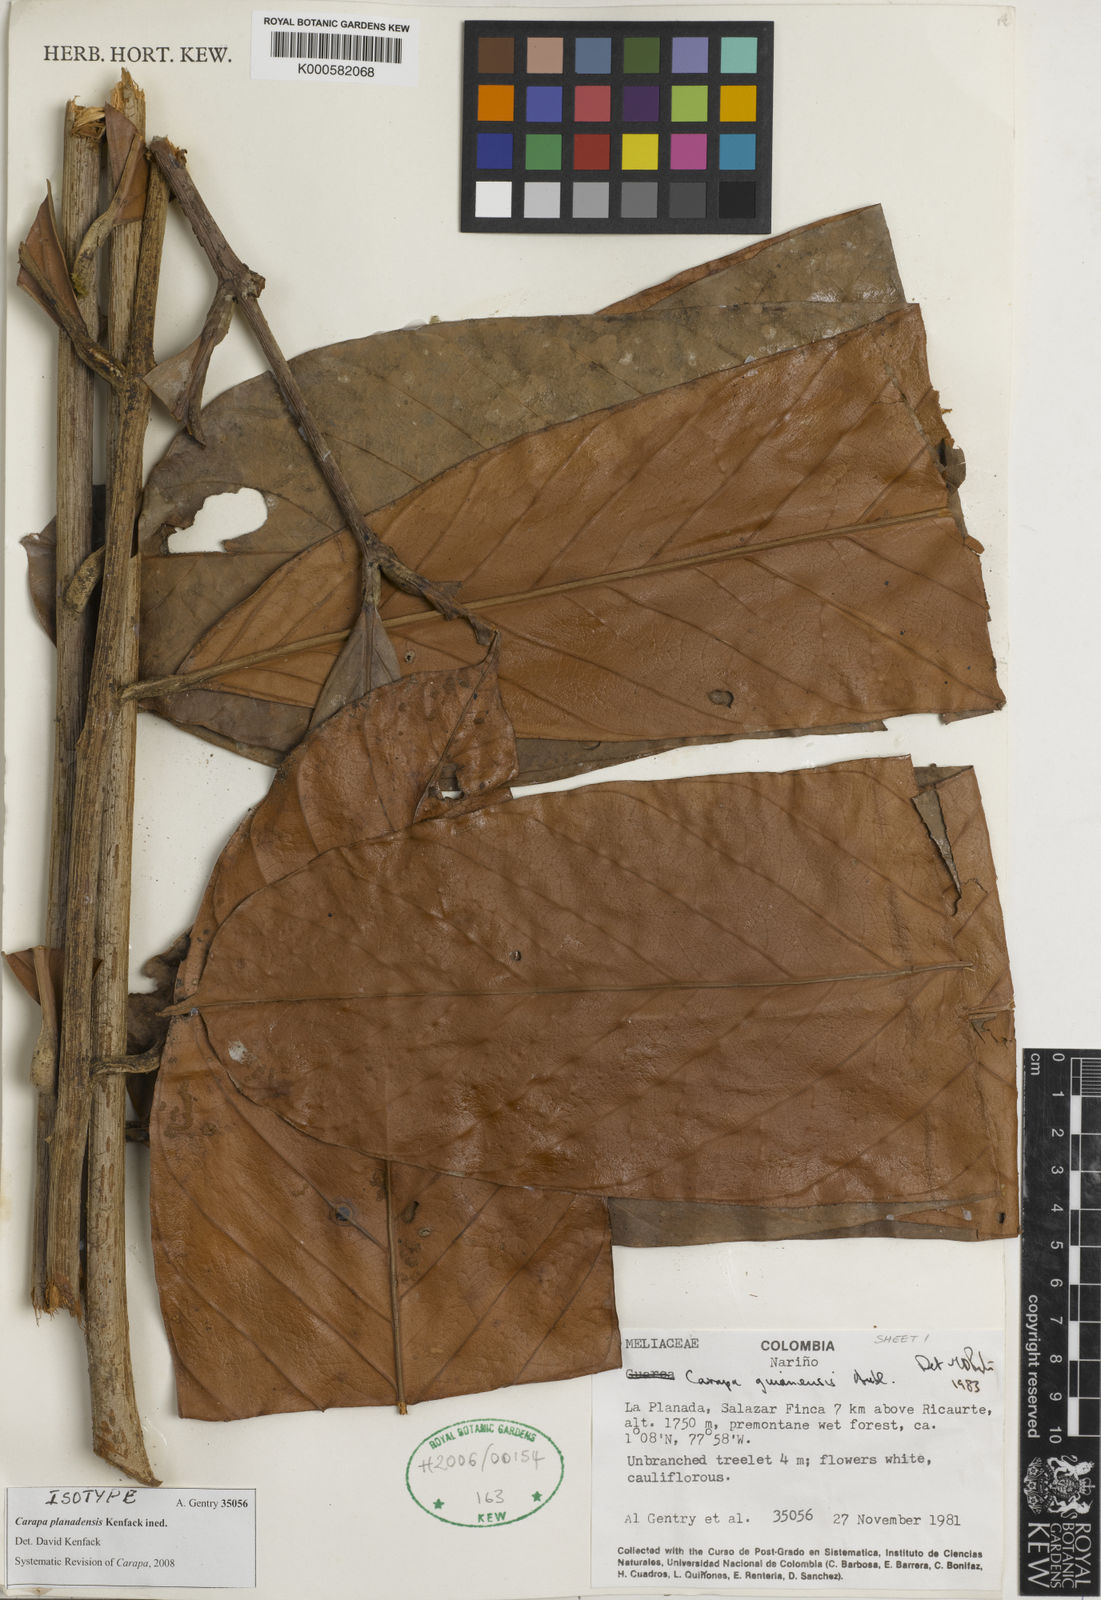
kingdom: Plantae
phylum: Tracheophyta
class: Magnoliopsida
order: Sapindales
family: Meliaceae
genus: Carapa
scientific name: Carapa planadensis
